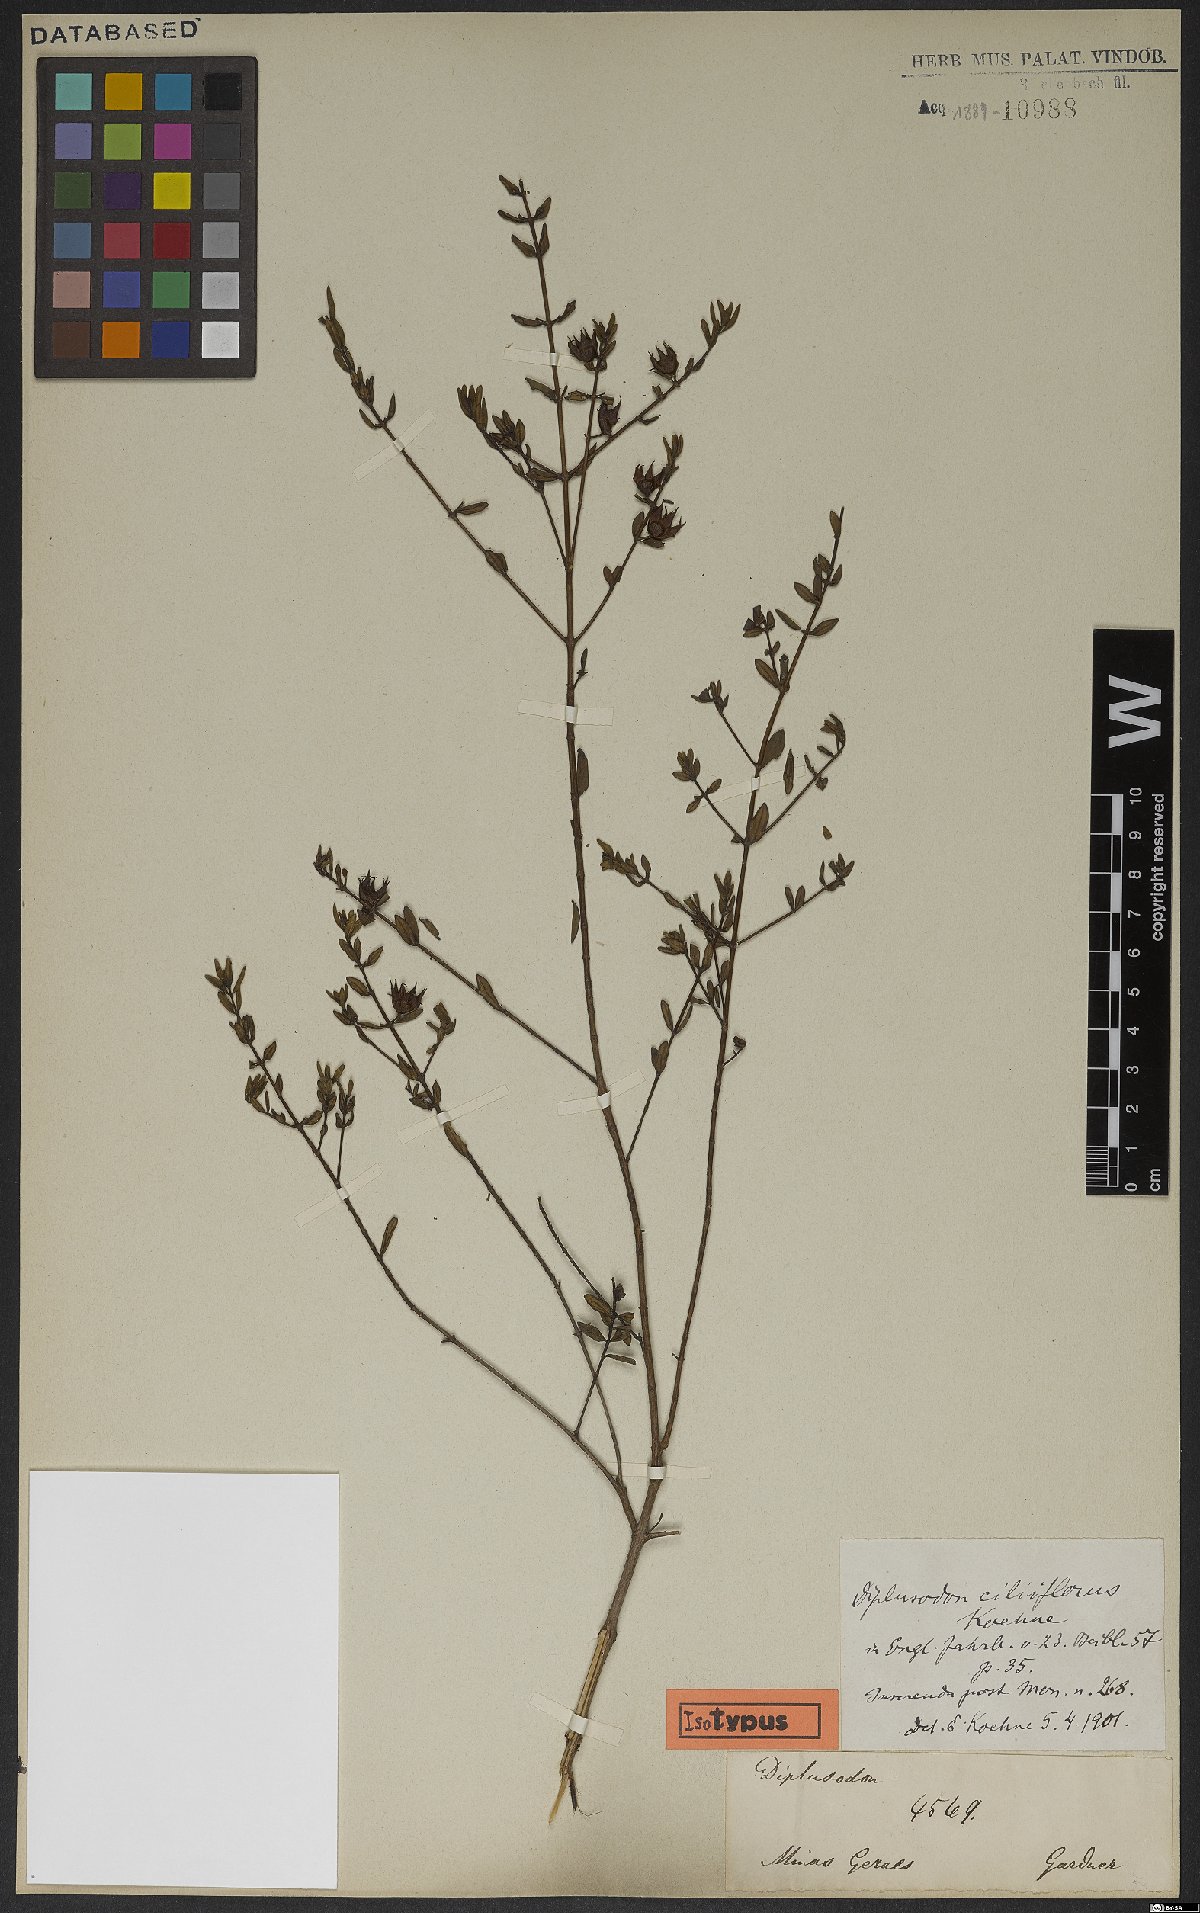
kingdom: Plantae
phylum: Tracheophyta
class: Magnoliopsida
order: Myrtales
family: Lythraceae
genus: Diplusodon
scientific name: Diplusodon ciliiflorus
